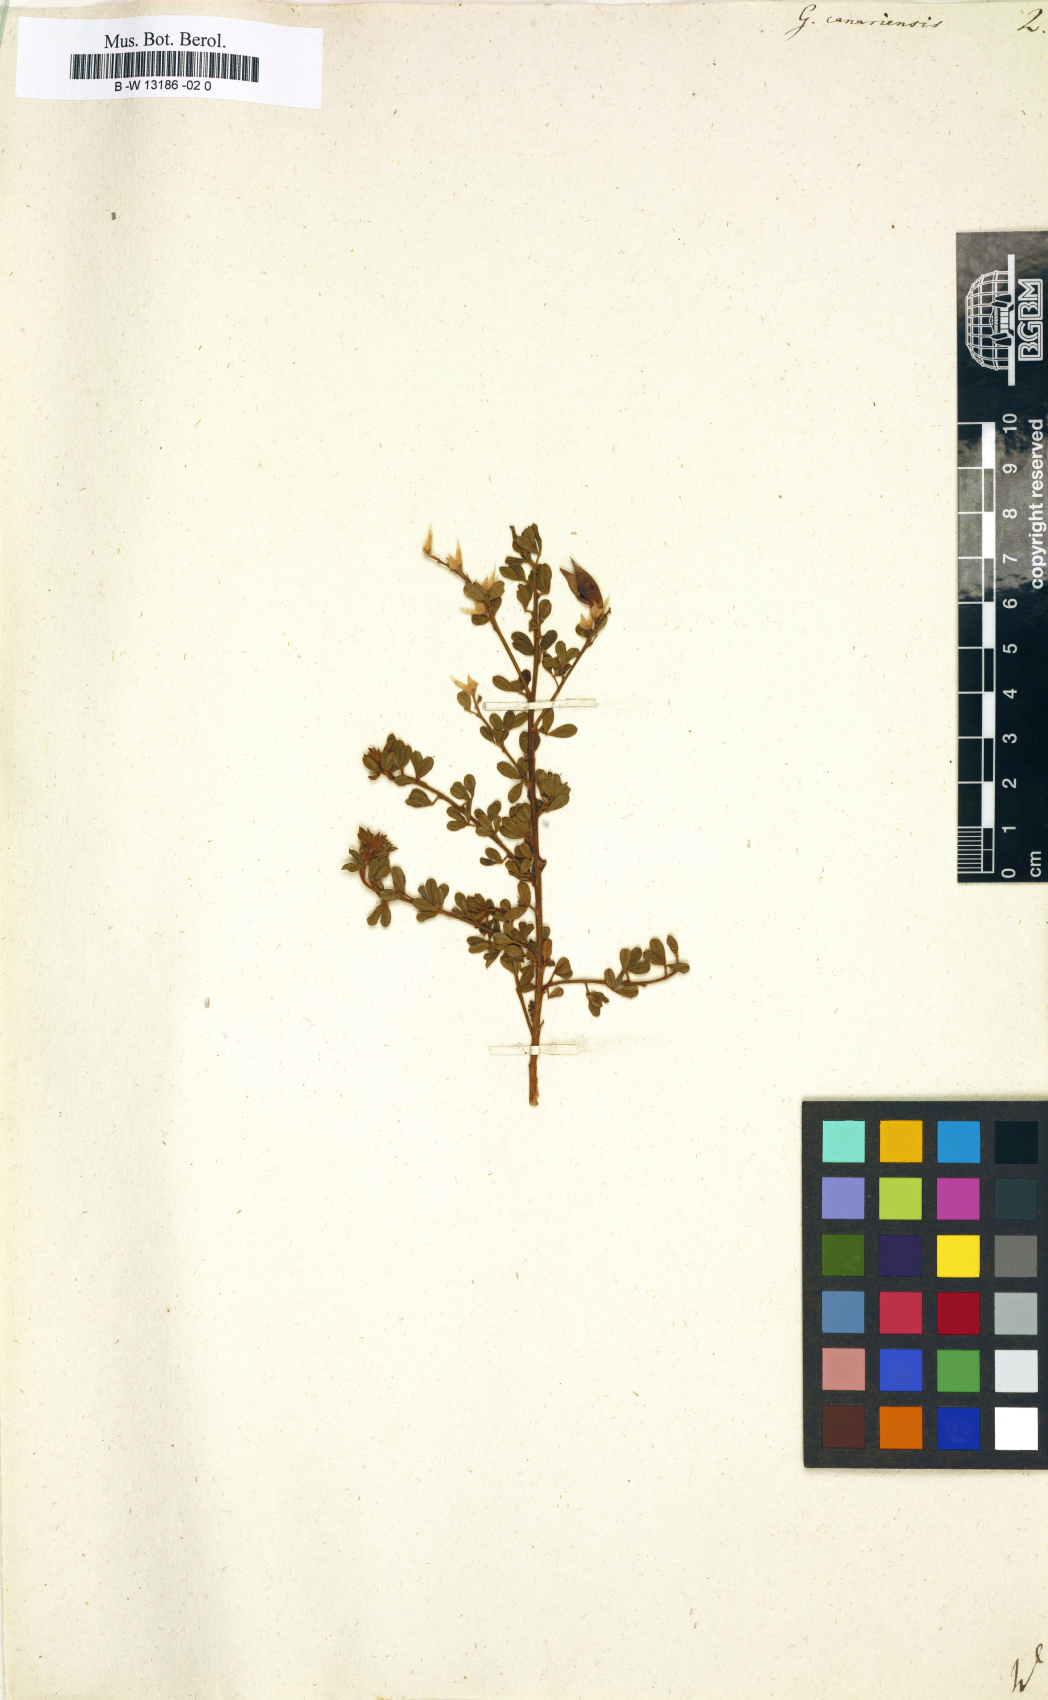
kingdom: Plantae
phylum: Tracheophyta
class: Magnoliopsida
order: Fabales
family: Fabaceae
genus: Genista
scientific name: Genista canariensis
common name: Canary broom
